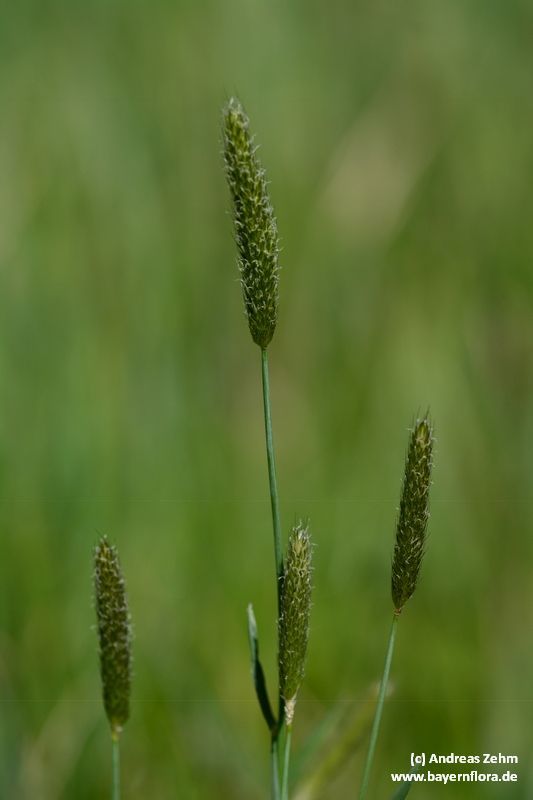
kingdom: Plantae
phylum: Tracheophyta
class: Liliopsida
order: Poales
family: Poaceae
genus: Alopecurus
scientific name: Alopecurus pratensis
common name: Meadow foxtail
